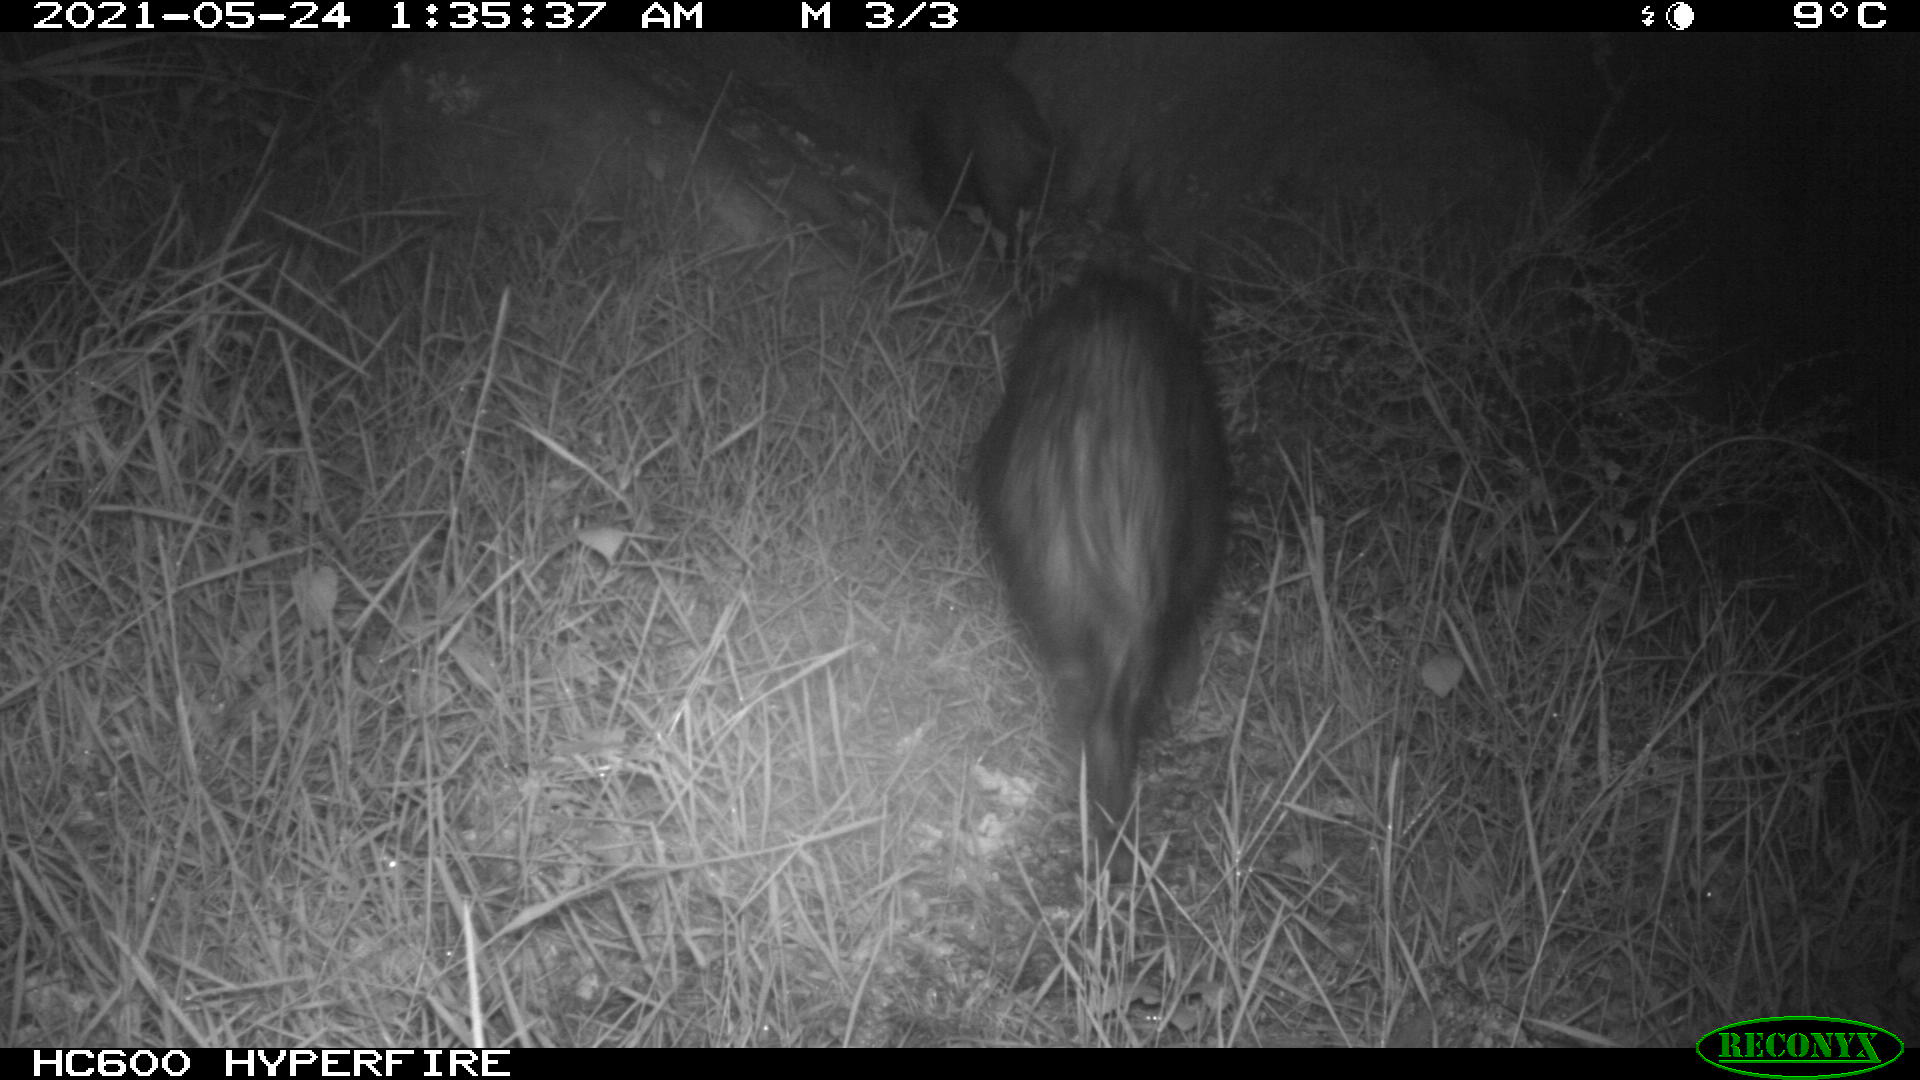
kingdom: Animalia
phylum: Chordata
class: Mammalia
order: Artiodactyla
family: Suidae
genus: Sus
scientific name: Sus scrofa
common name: Wild boar
